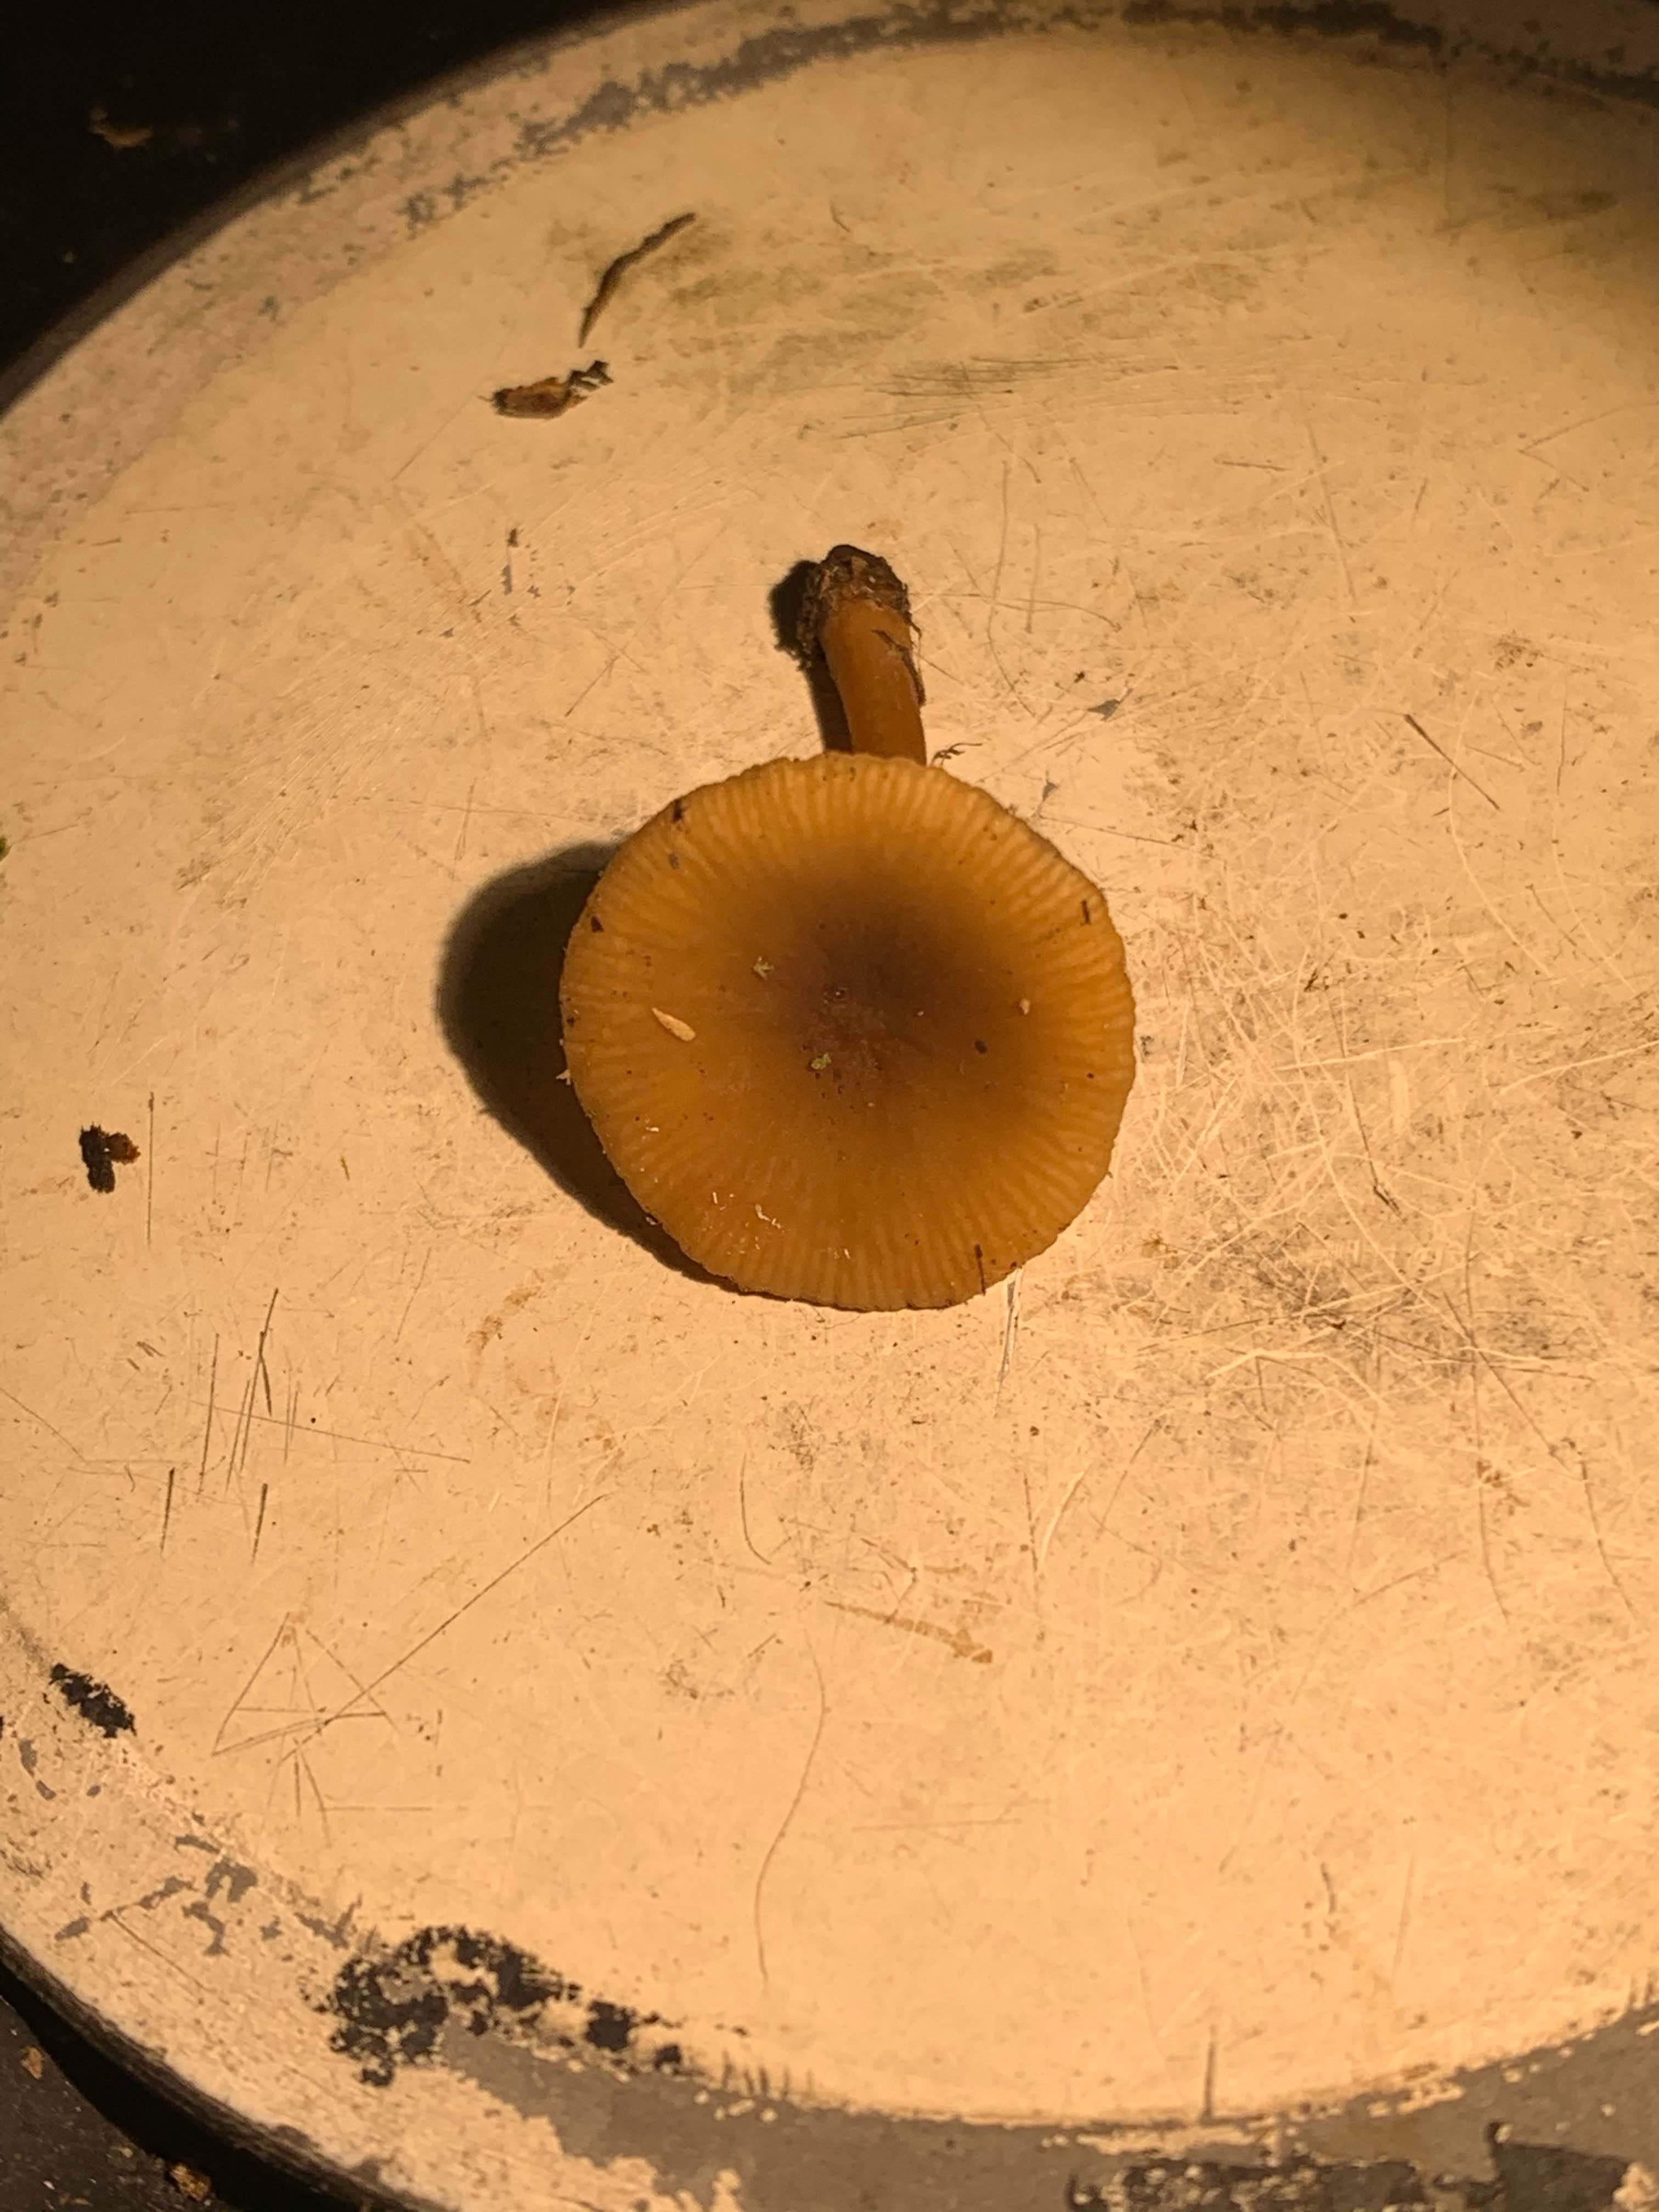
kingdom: Fungi
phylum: Basidiomycota
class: Agaricomycetes
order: Russulales
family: Russulaceae
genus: Lactarius
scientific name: Lactarius obscuratus
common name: elle-mælkehat
